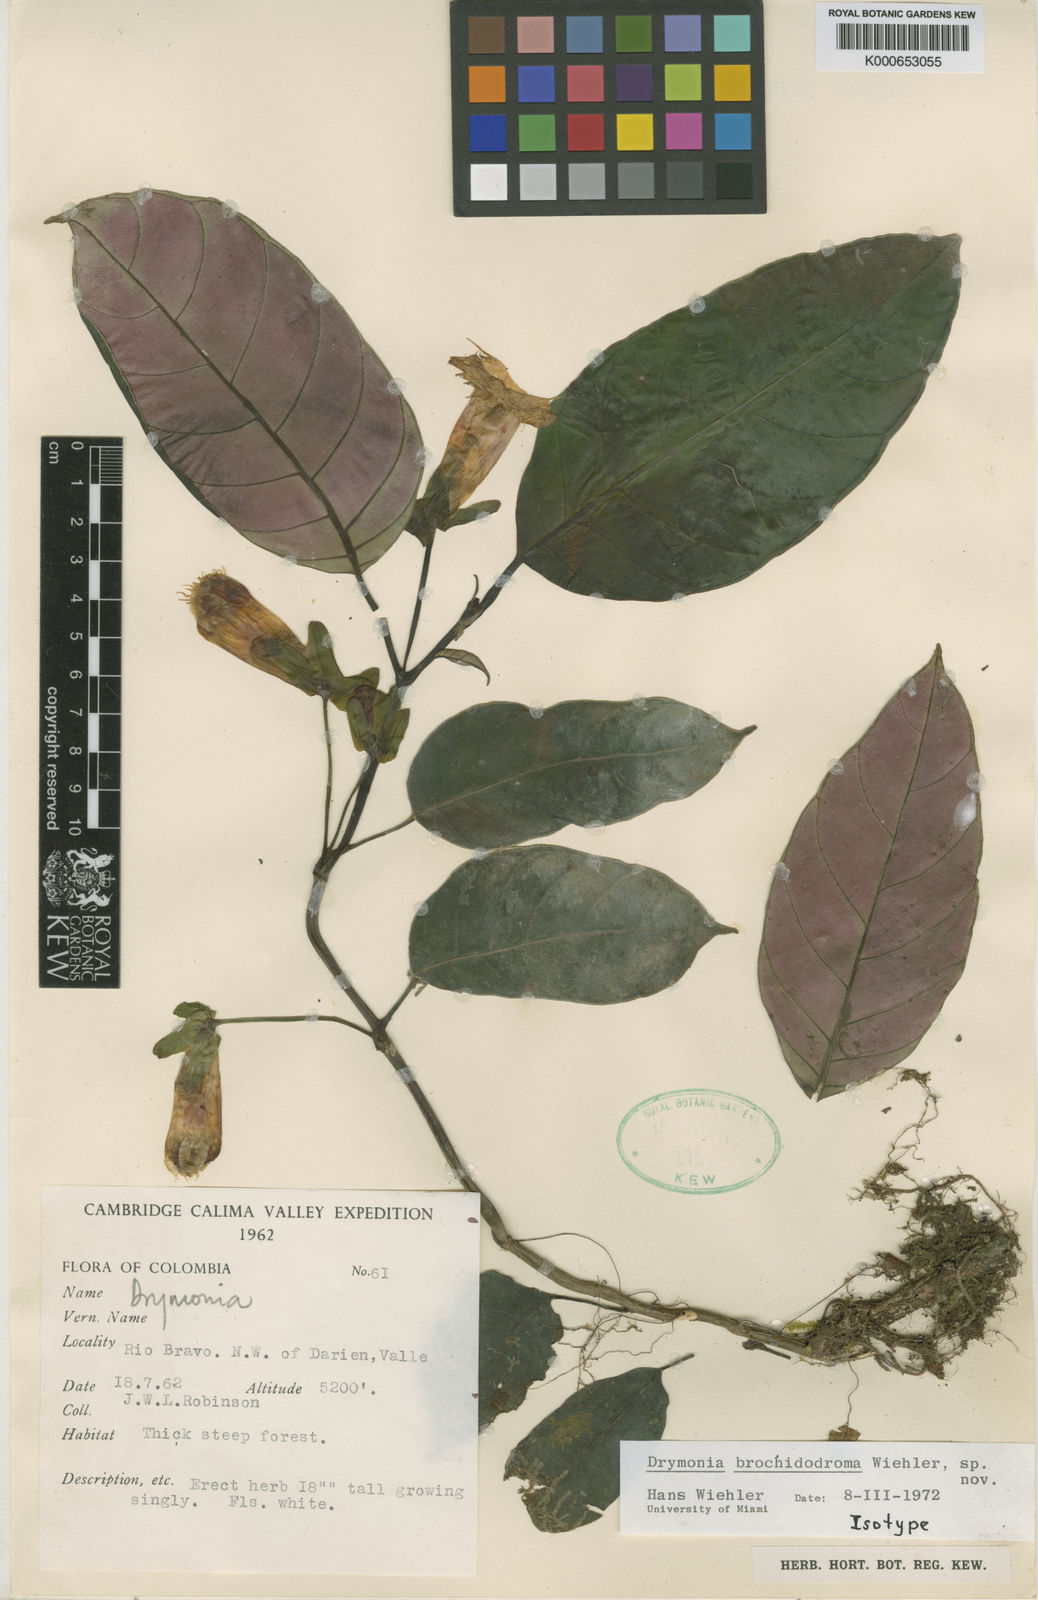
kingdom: Plantae
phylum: Tracheophyta
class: Magnoliopsida
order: Lamiales
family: Gesneriaceae
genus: Drymonia
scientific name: Drymonia brochidodroma
